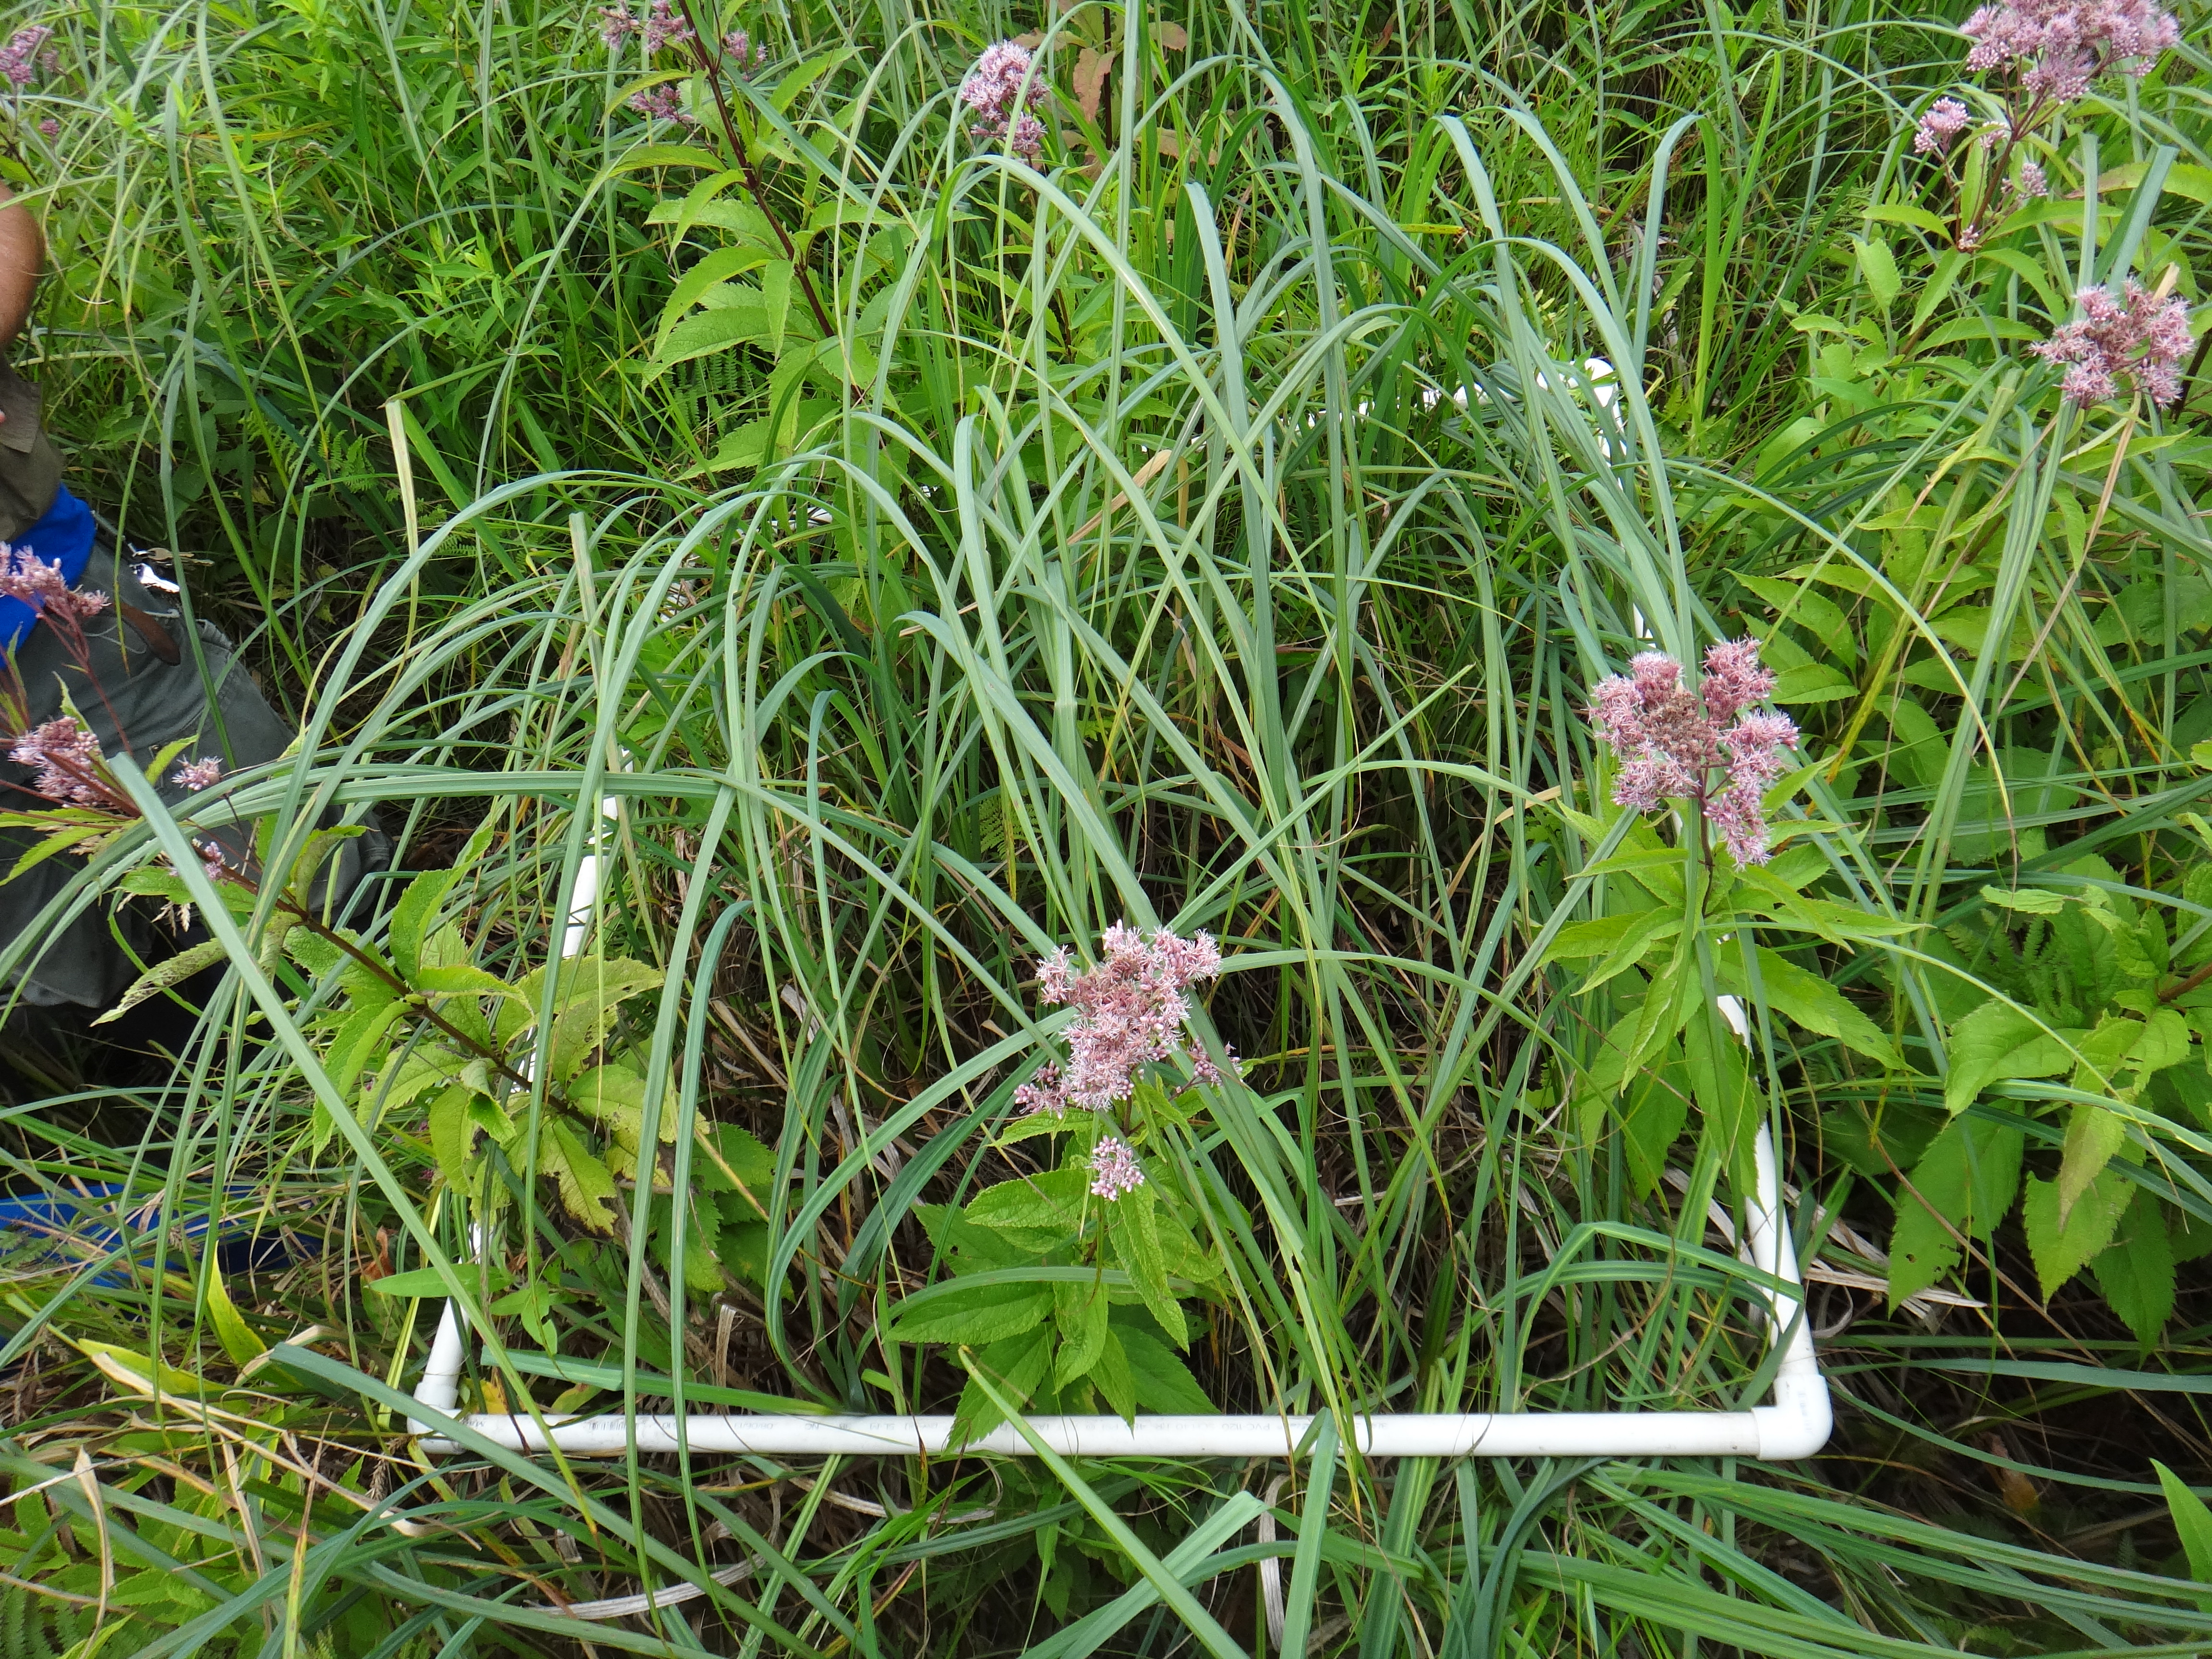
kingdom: Plantae
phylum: Tracheophyta
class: Magnoliopsida
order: Asterales
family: Asteraceae
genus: Symphyotrichum
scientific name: Symphyotrichum firmum
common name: Shining aster
